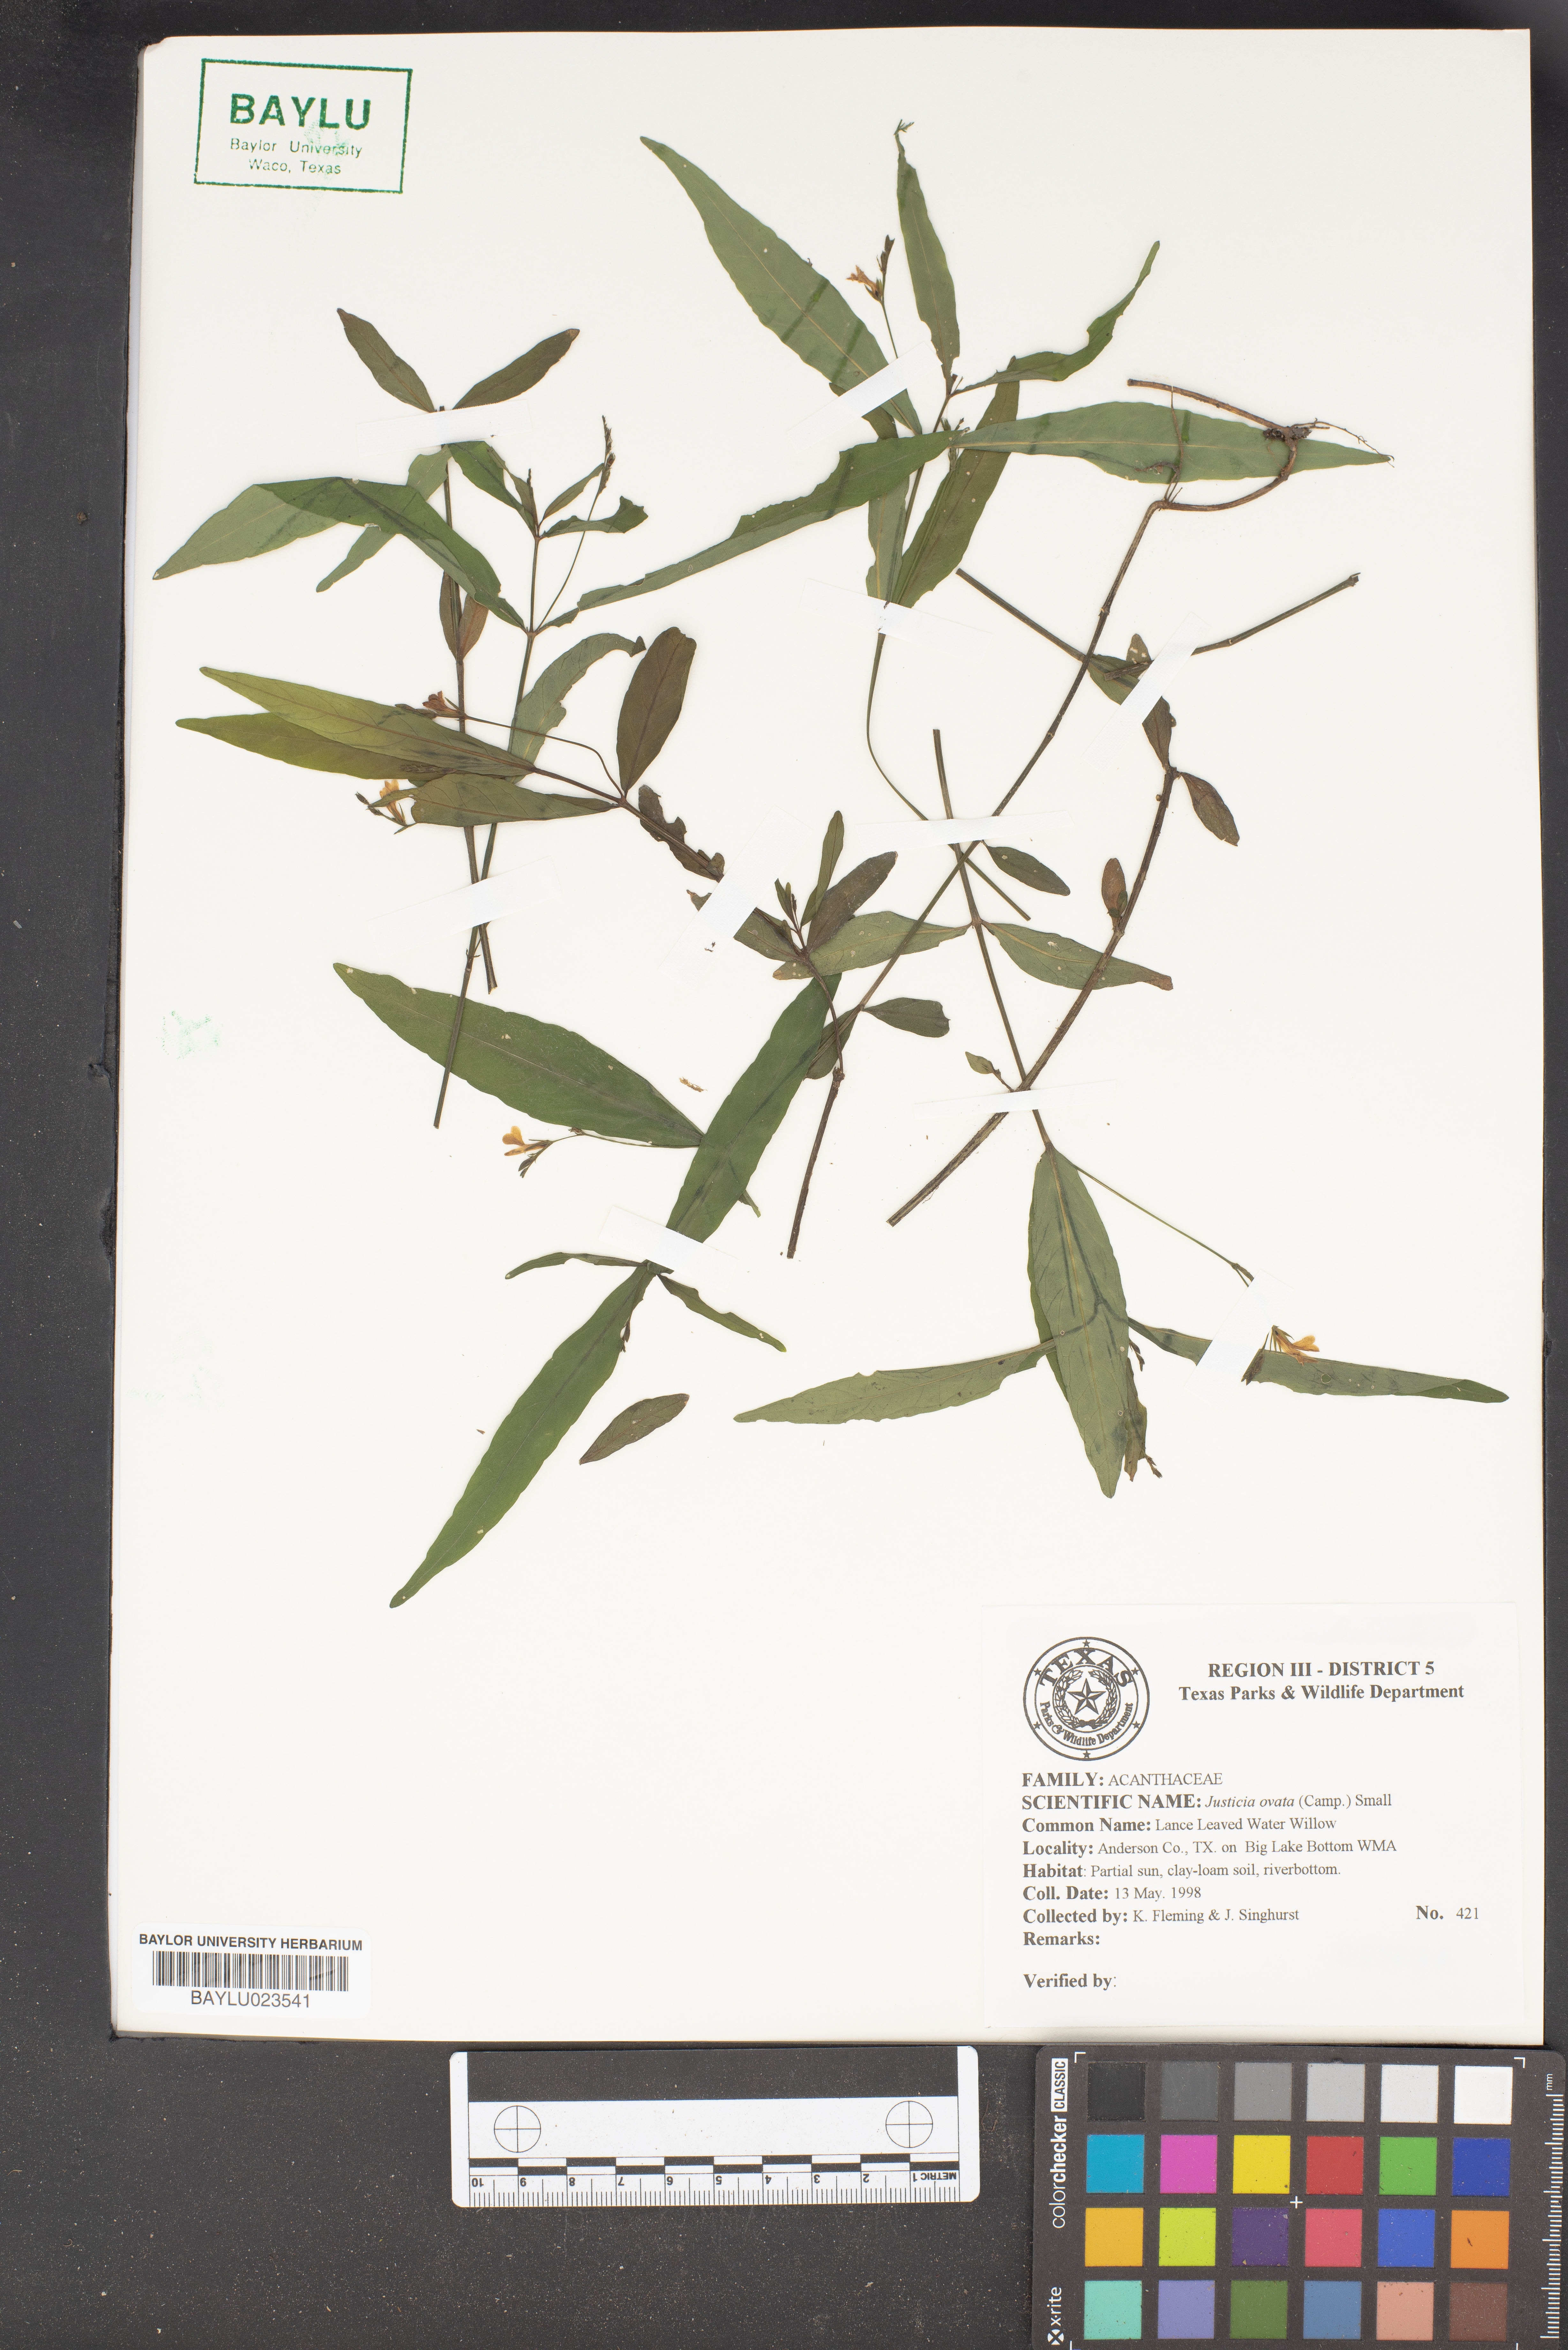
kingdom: Plantae
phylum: Tracheophyta
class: Magnoliopsida
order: Lamiales
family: Acanthaceae
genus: Dianthera
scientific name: Dianthera ovata
